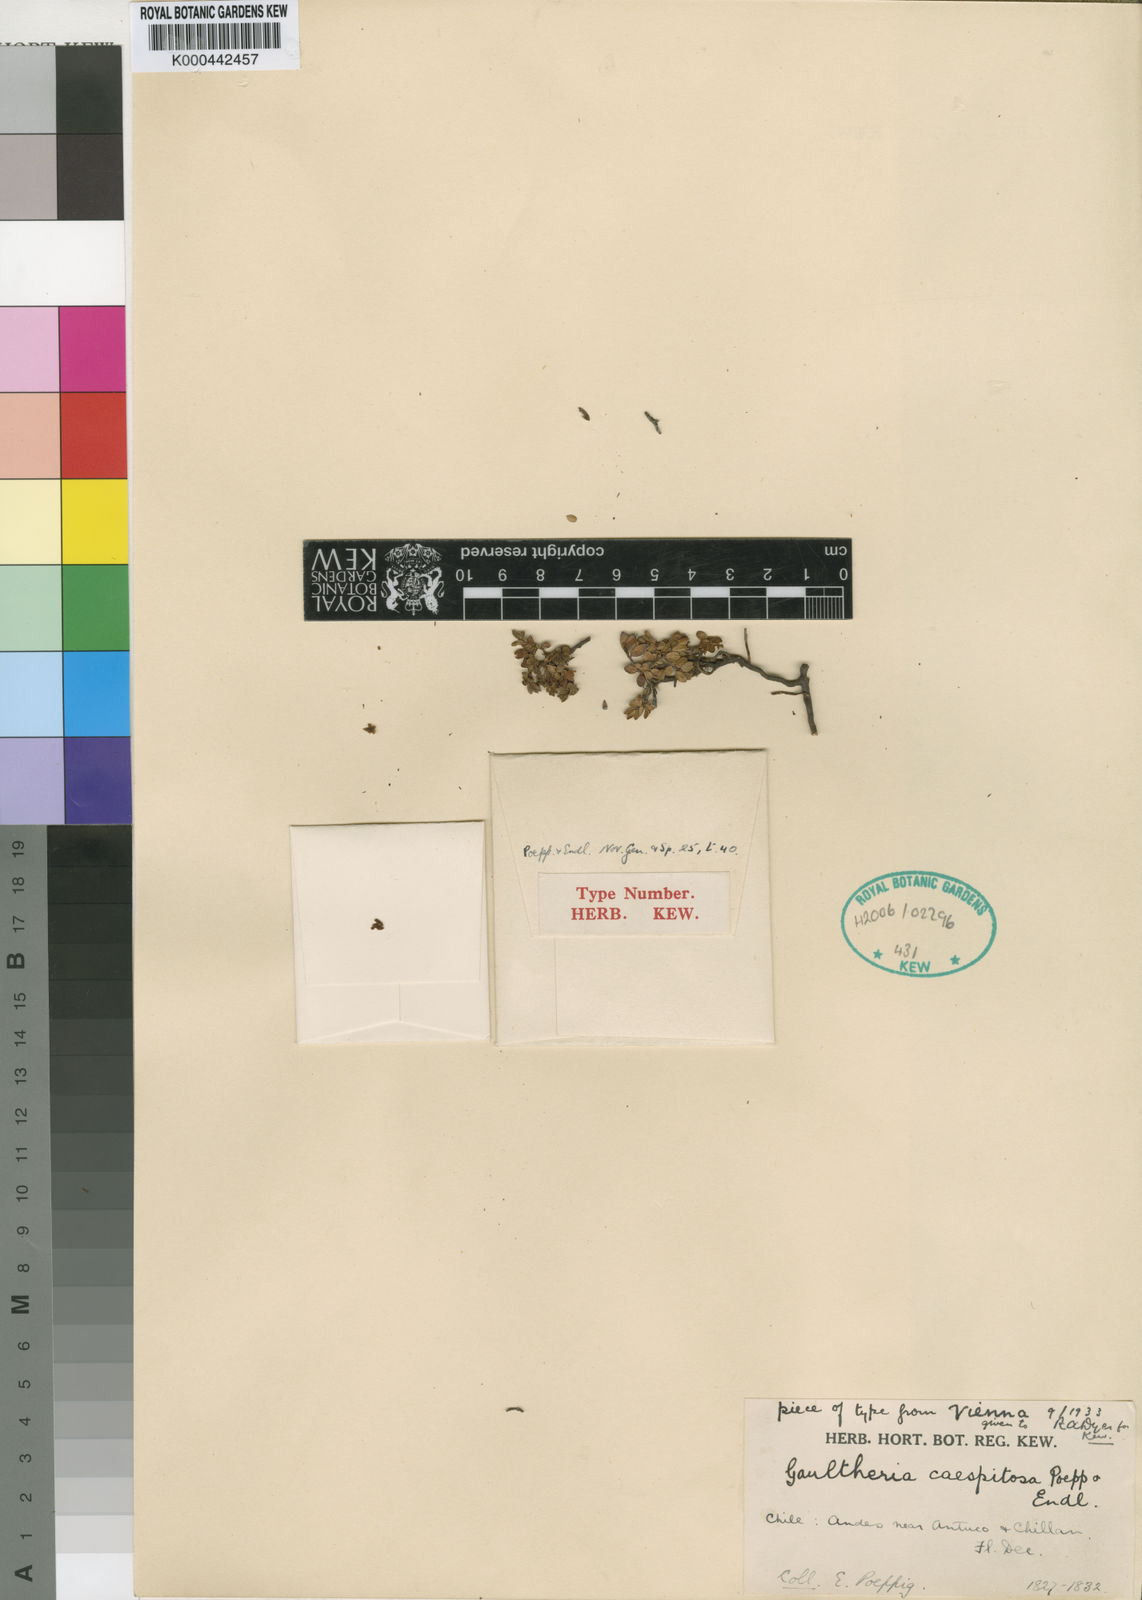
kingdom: Plantae
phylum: Tracheophyta
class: Magnoliopsida
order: Ericales
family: Ericaceae
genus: Gaultheria
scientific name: Gaultheria caespitosa
